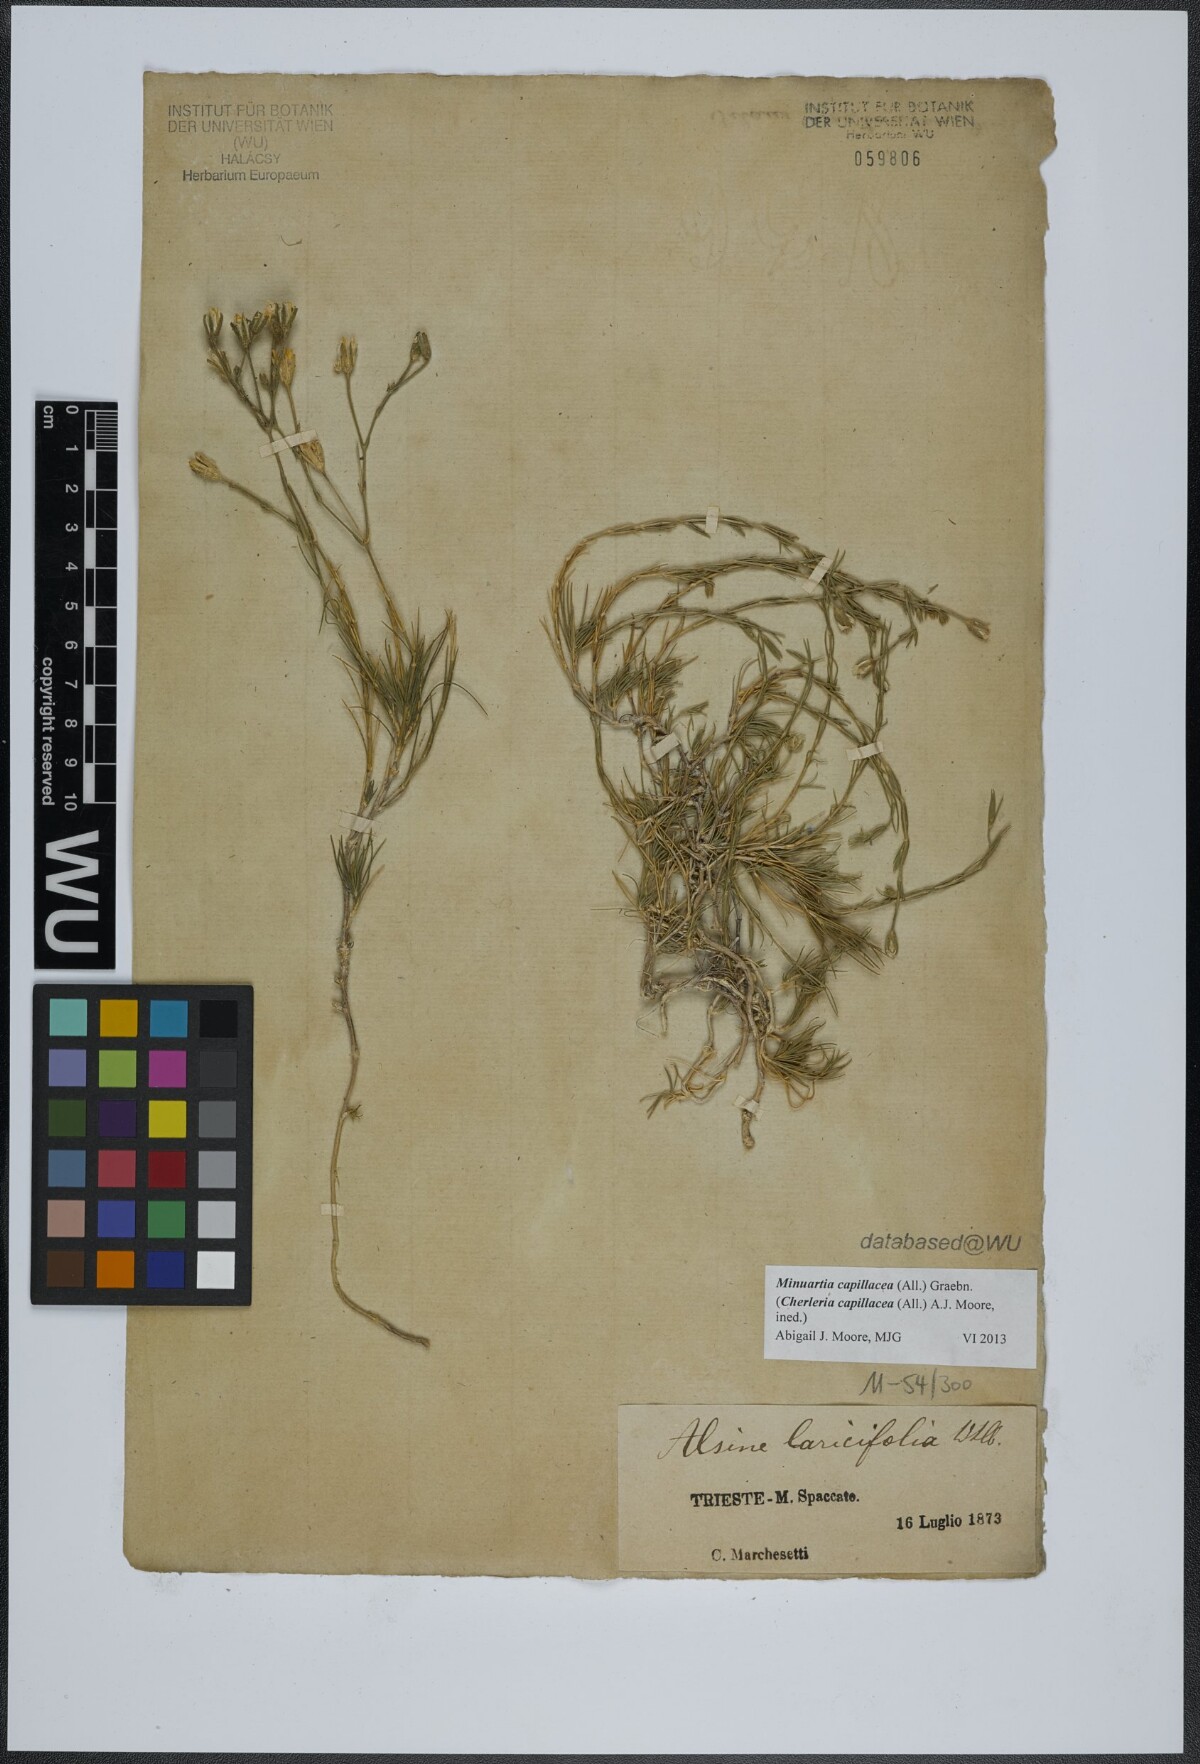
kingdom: Plantae
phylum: Tracheophyta
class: Magnoliopsida
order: Caryophyllales
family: Caryophyllaceae
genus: Cherleria
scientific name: Cherleria capillacea
